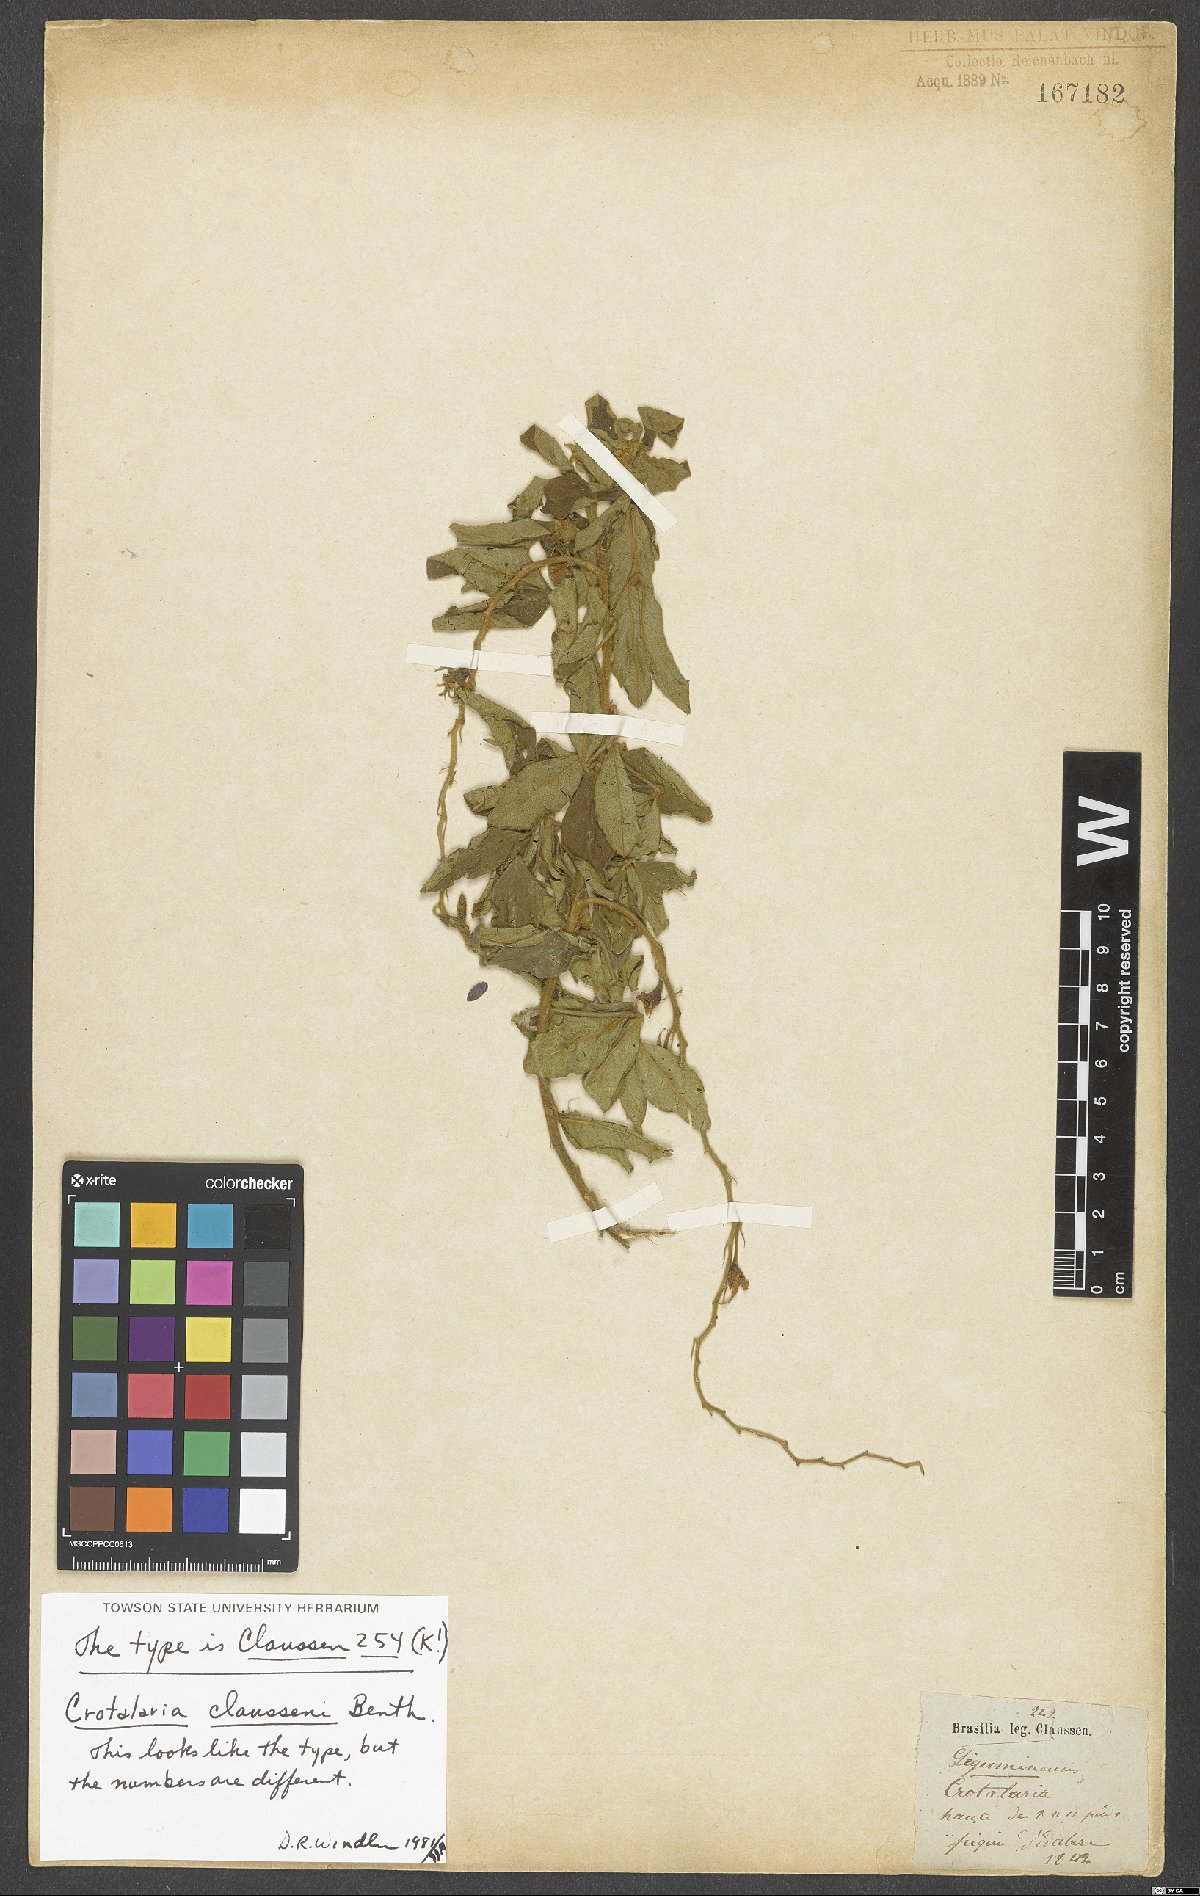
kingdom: Plantae
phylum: Tracheophyta
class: Magnoliopsida
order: Fabales
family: Fabaceae
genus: Crotalaria
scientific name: Crotalaria claussenii
